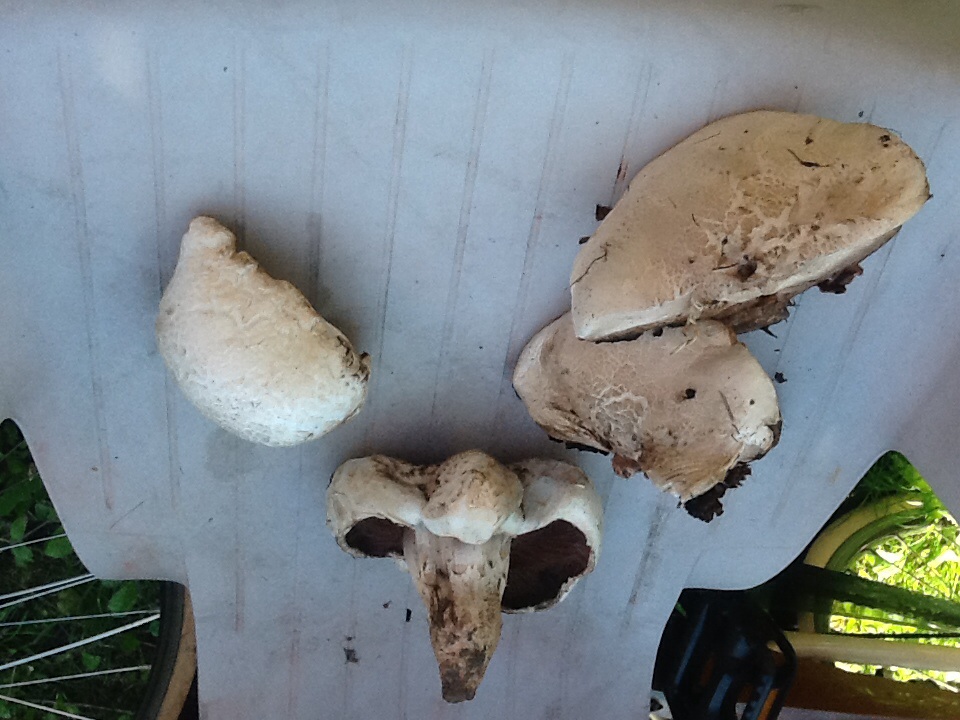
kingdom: Fungi
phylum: Basidiomycota
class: Agaricomycetes
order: Agaricales
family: Agaricaceae
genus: Agaricus
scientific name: Agaricus bernardii
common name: strandengs-champignon
